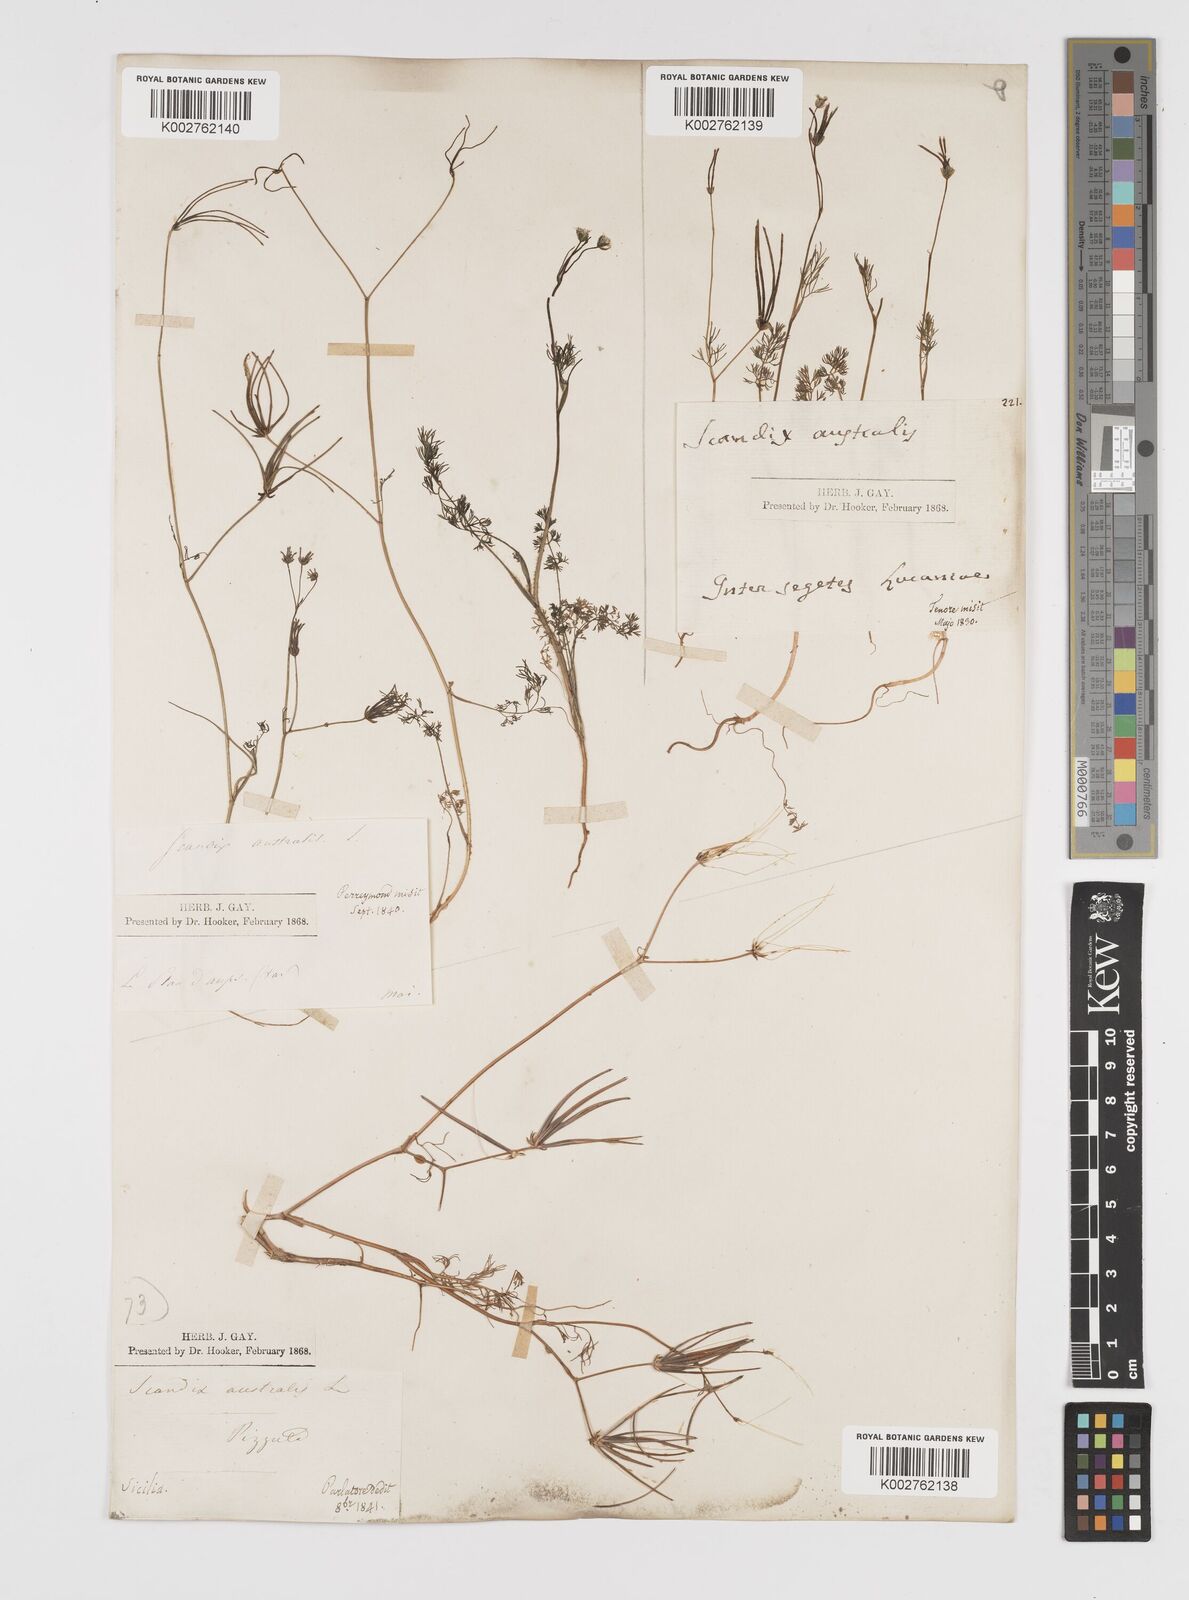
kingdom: Plantae
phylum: Tracheophyta
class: Magnoliopsida
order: Apiales
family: Apiaceae
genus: Scandix
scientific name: Scandix australis
